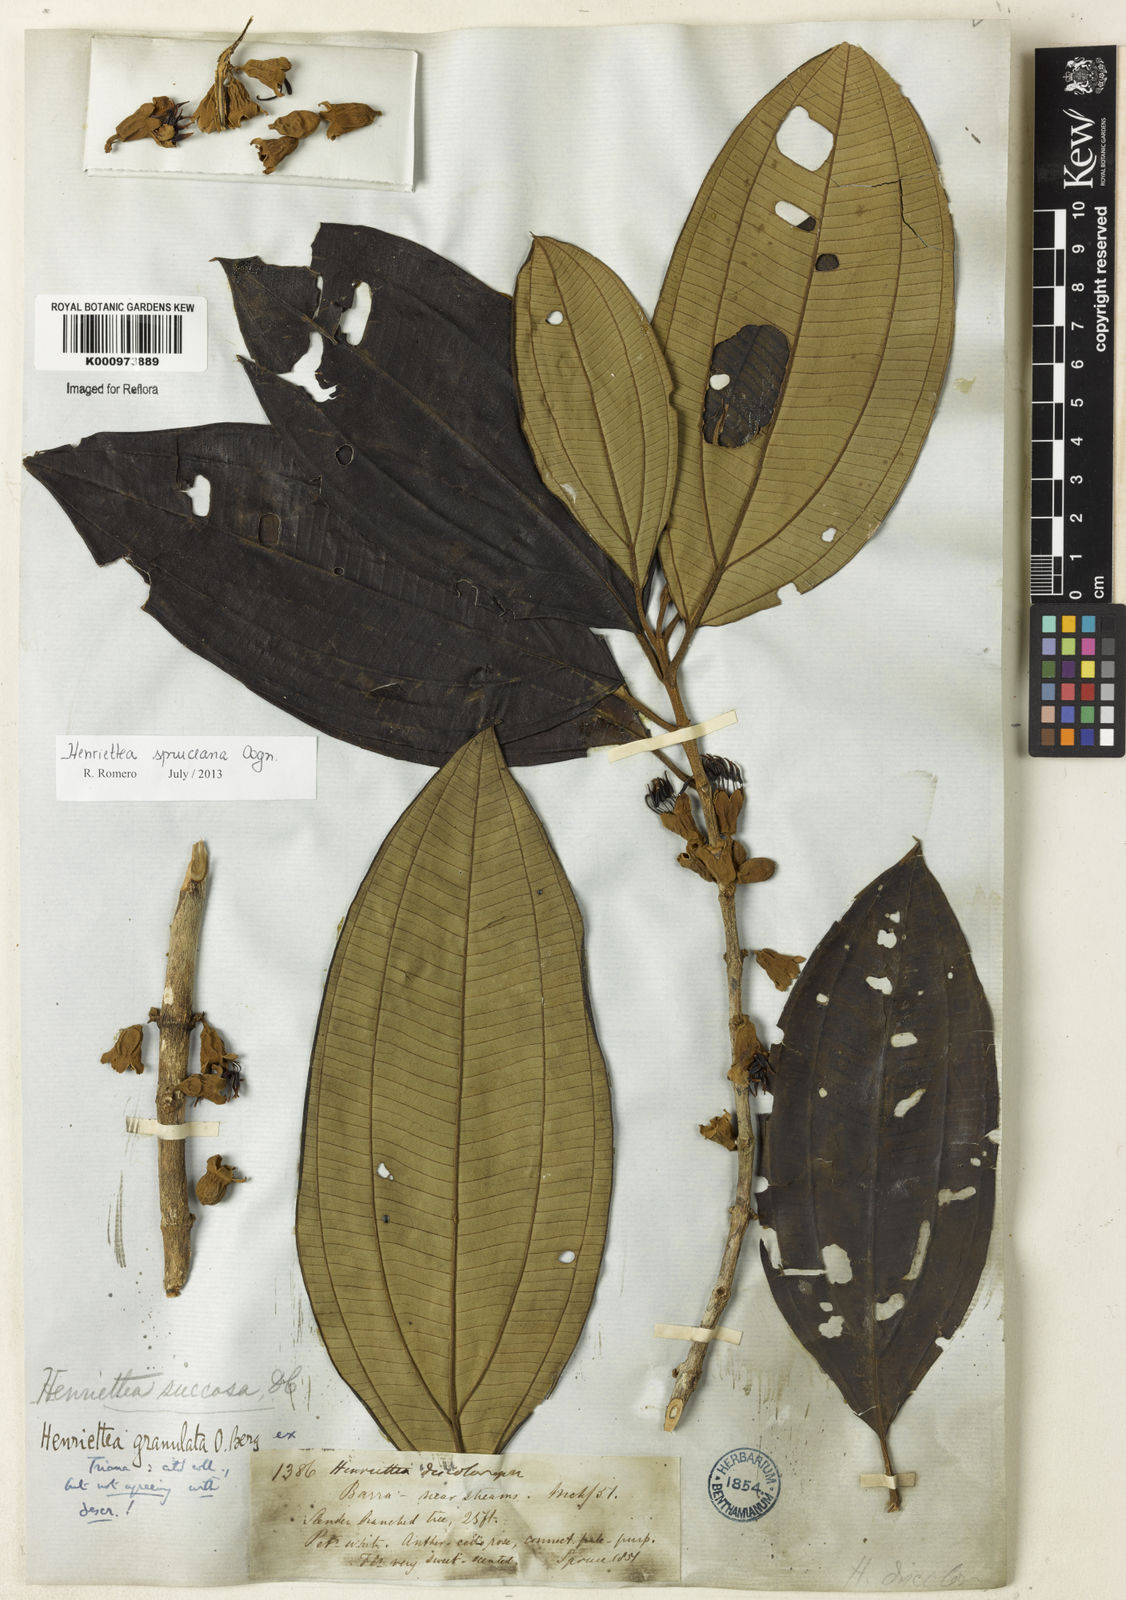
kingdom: Plantae
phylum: Tracheophyta
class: Magnoliopsida
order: Myrtales
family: Melastomataceae
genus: Henriettea
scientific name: Henriettea spruceana
